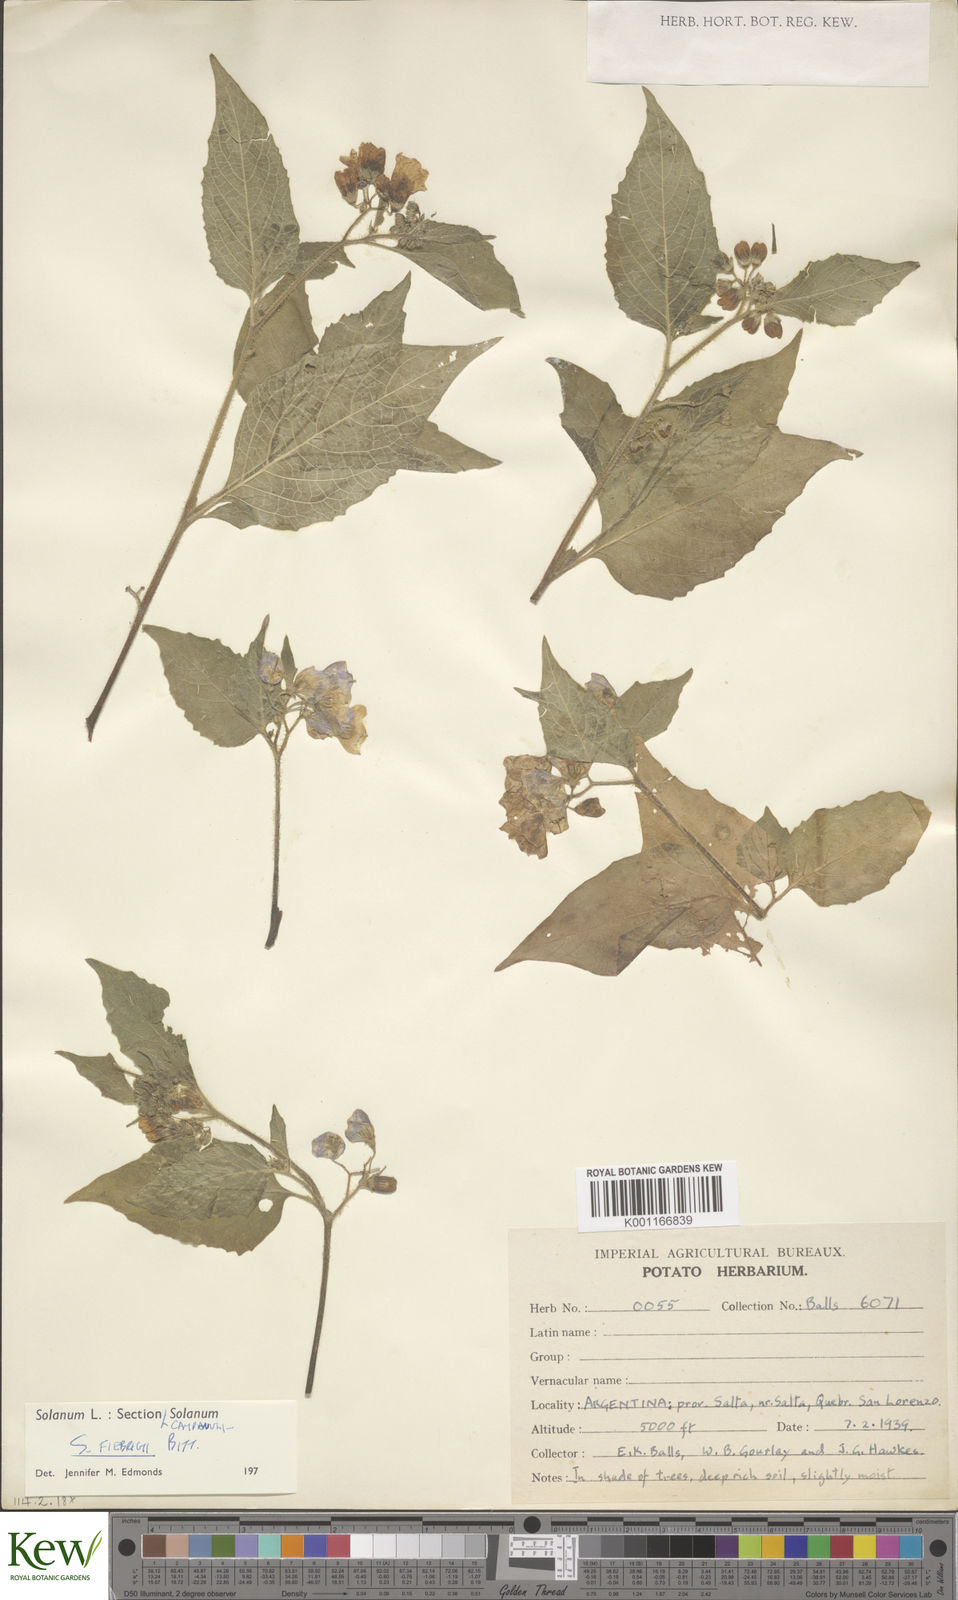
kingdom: Plantae
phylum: Tracheophyta
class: Magnoliopsida
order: Solanales
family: Solanaceae
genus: Solanum
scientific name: Solanum fiebrigii
